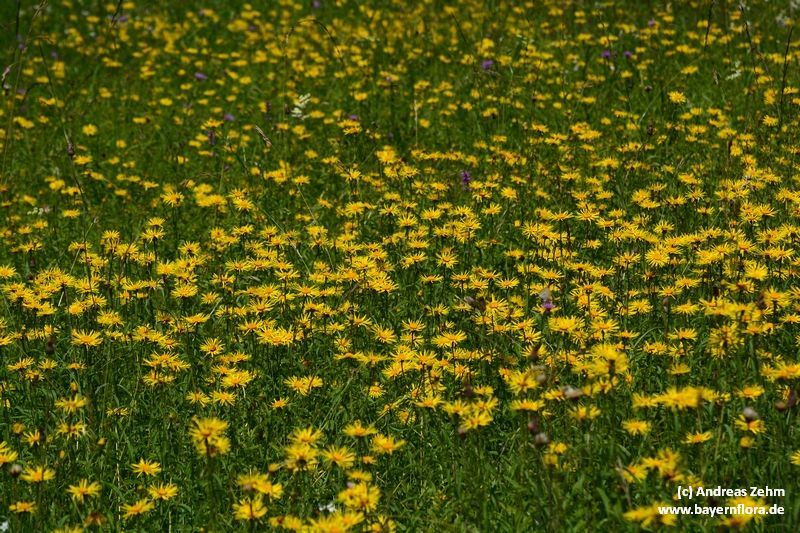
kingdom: Plantae
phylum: Tracheophyta
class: Magnoliopsida
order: Asterales
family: Asteraceae
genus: Pentanema
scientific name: Pentanema salicinum
